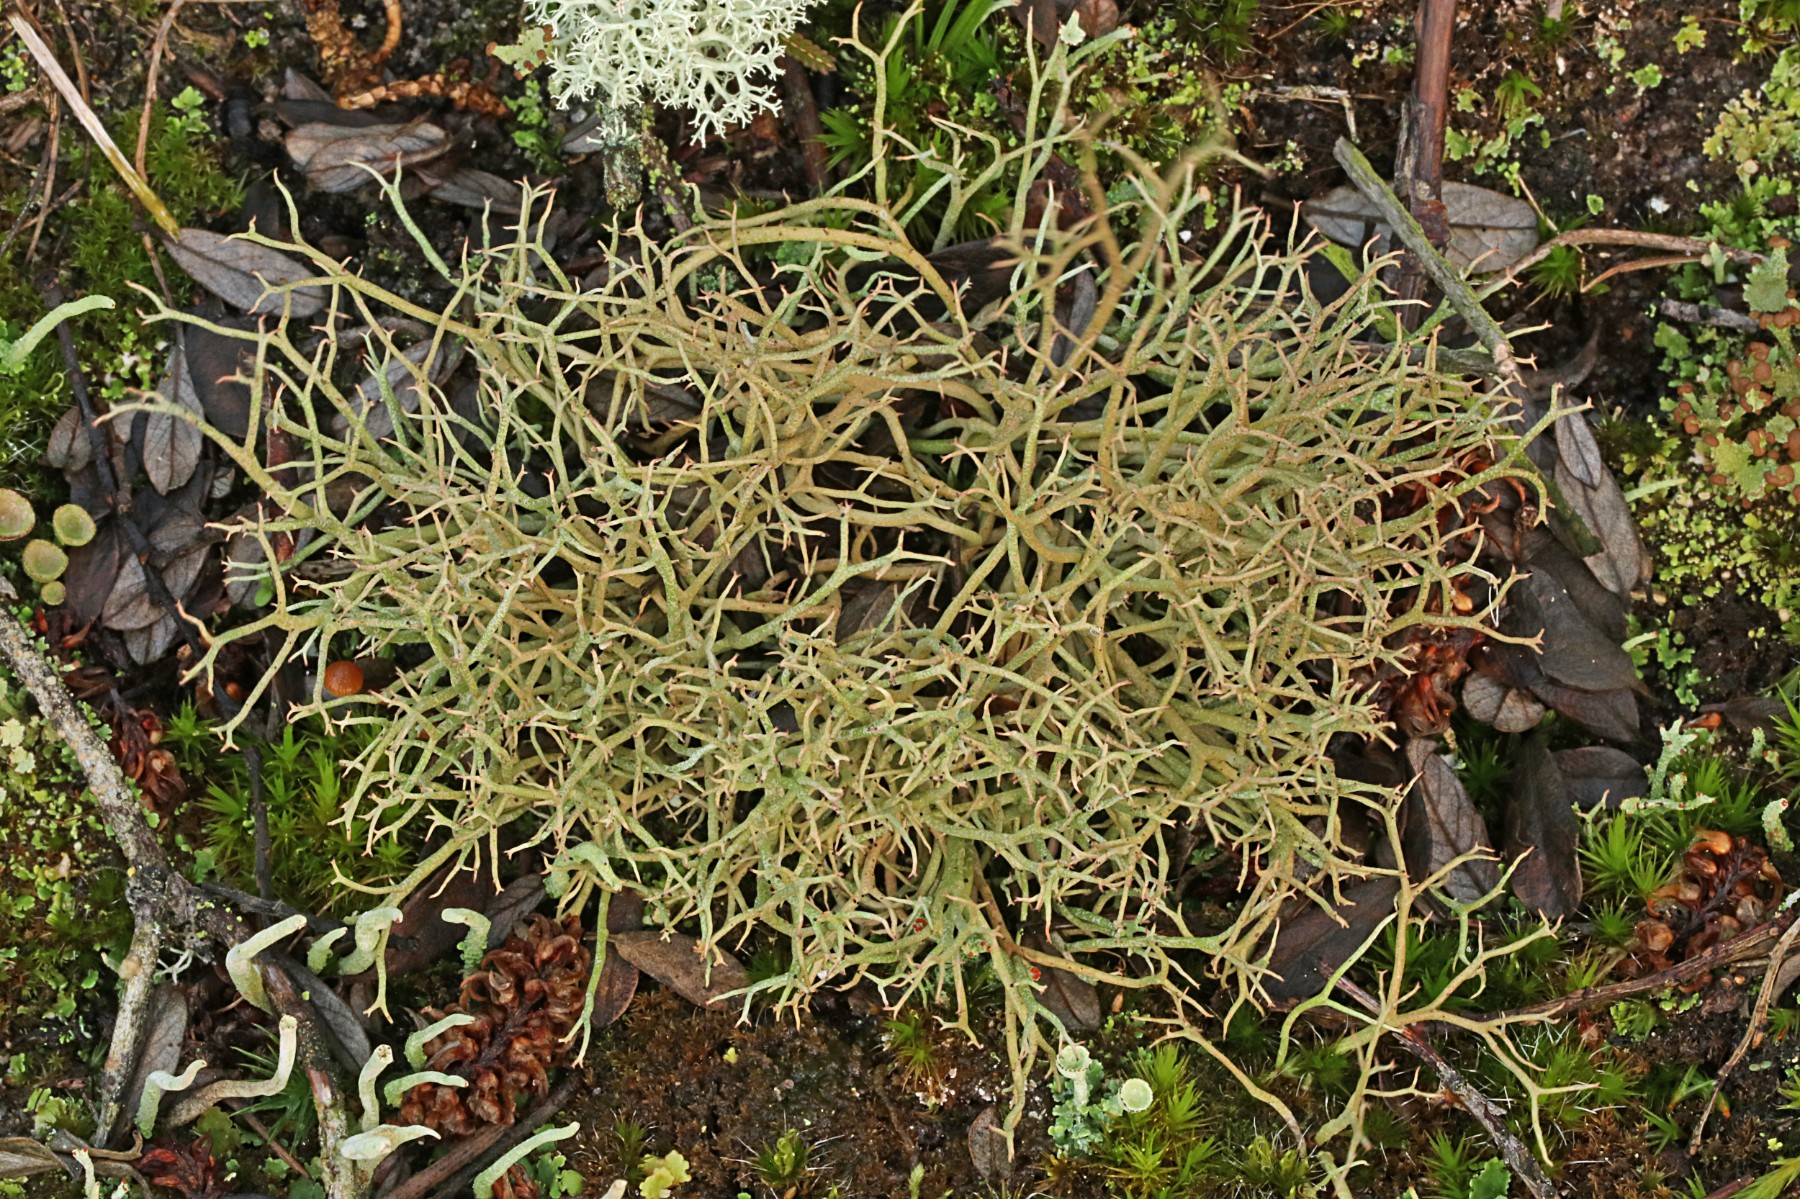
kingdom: Fungi
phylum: Ascomycota
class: Lecanoromycetes
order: Lecanorales
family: Cladoniaceae
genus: Cladonia
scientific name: Cladonia furcata
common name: kløftet bægerlav
